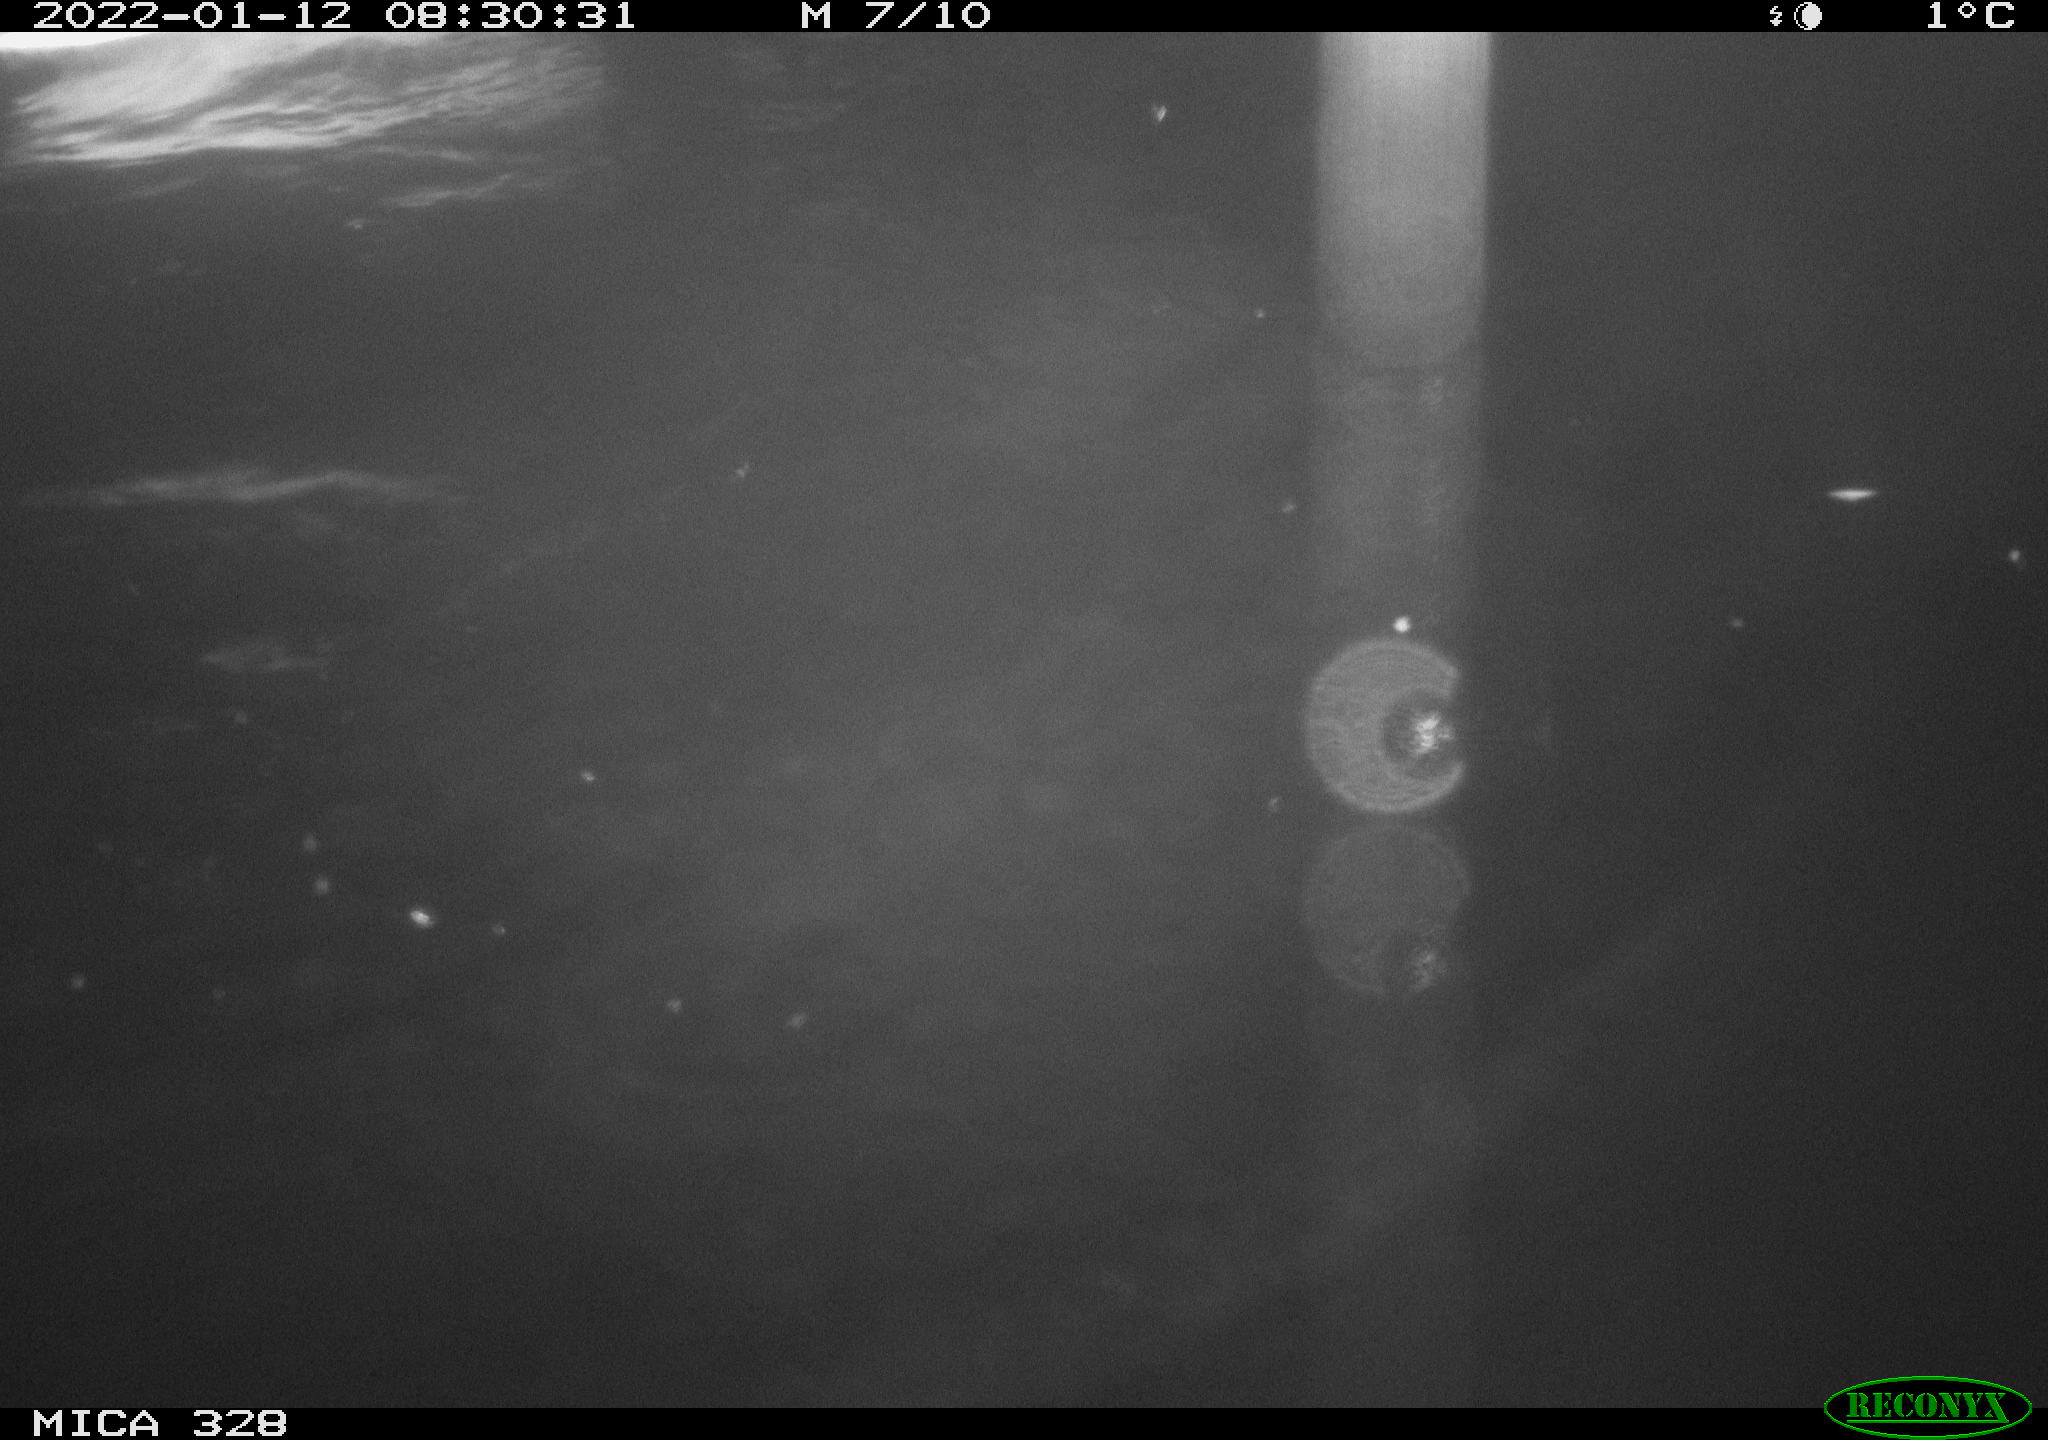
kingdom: Animalia
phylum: Chordata
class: Aves
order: Anseriformes
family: Anatidae
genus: Anas
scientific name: Anas platyrhynchos
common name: Mallard
